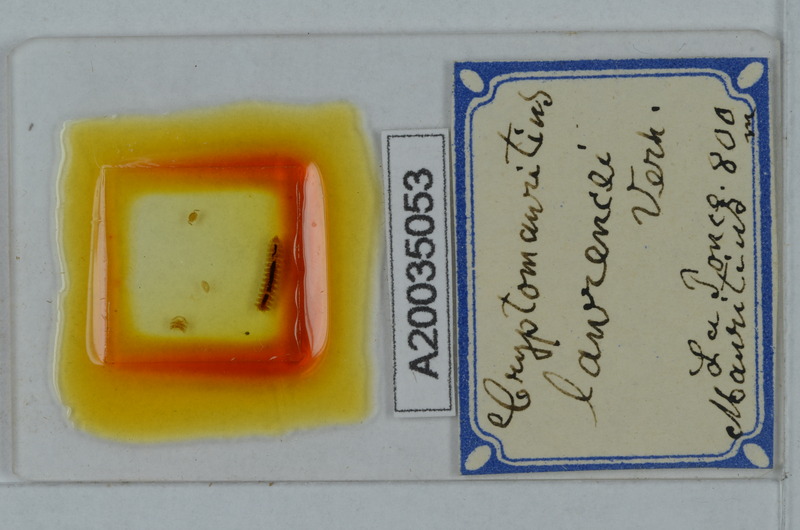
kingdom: Animalia
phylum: Arthropoda
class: Diplopoda
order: Polydesmida
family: Cryptodesmidae
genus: Cryptodesmus
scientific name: Cryptodesmus
